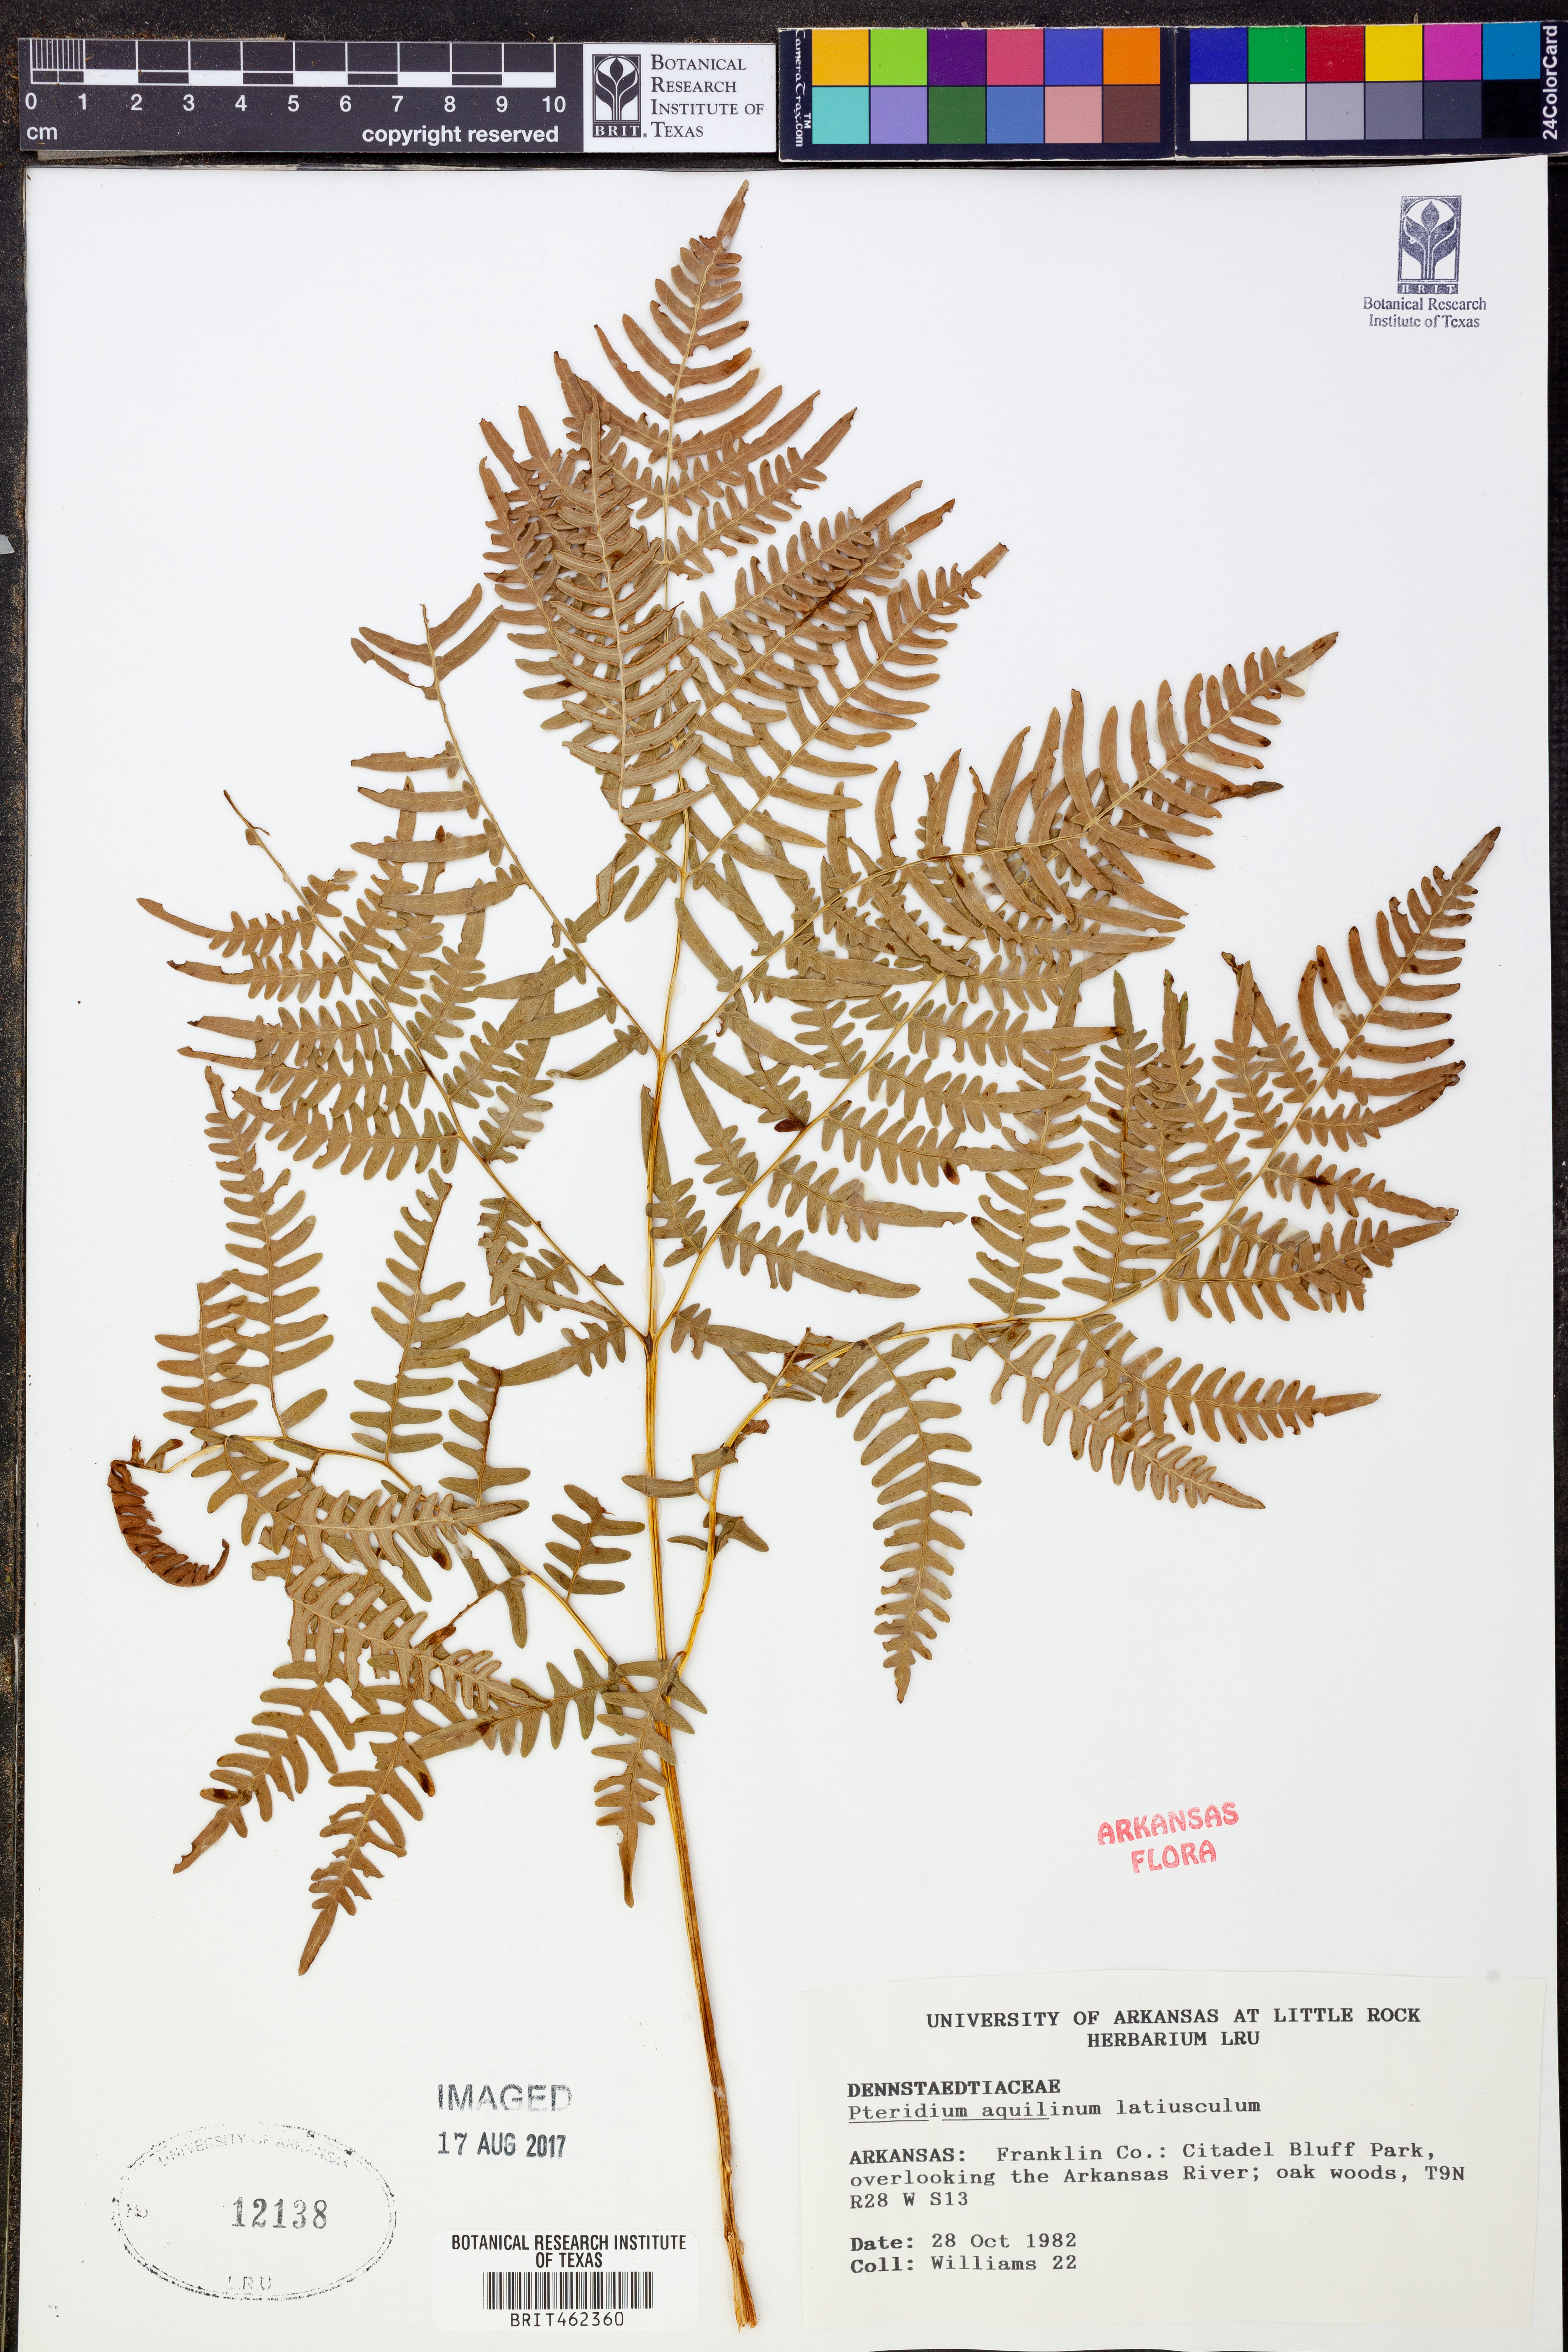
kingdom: Plantae
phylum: Tracheophyta
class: Polypodiopsida
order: Polypodiales
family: Dennstaedtiaceae
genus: Pteridium
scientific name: Pteridium aquilinum
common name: Bracken
